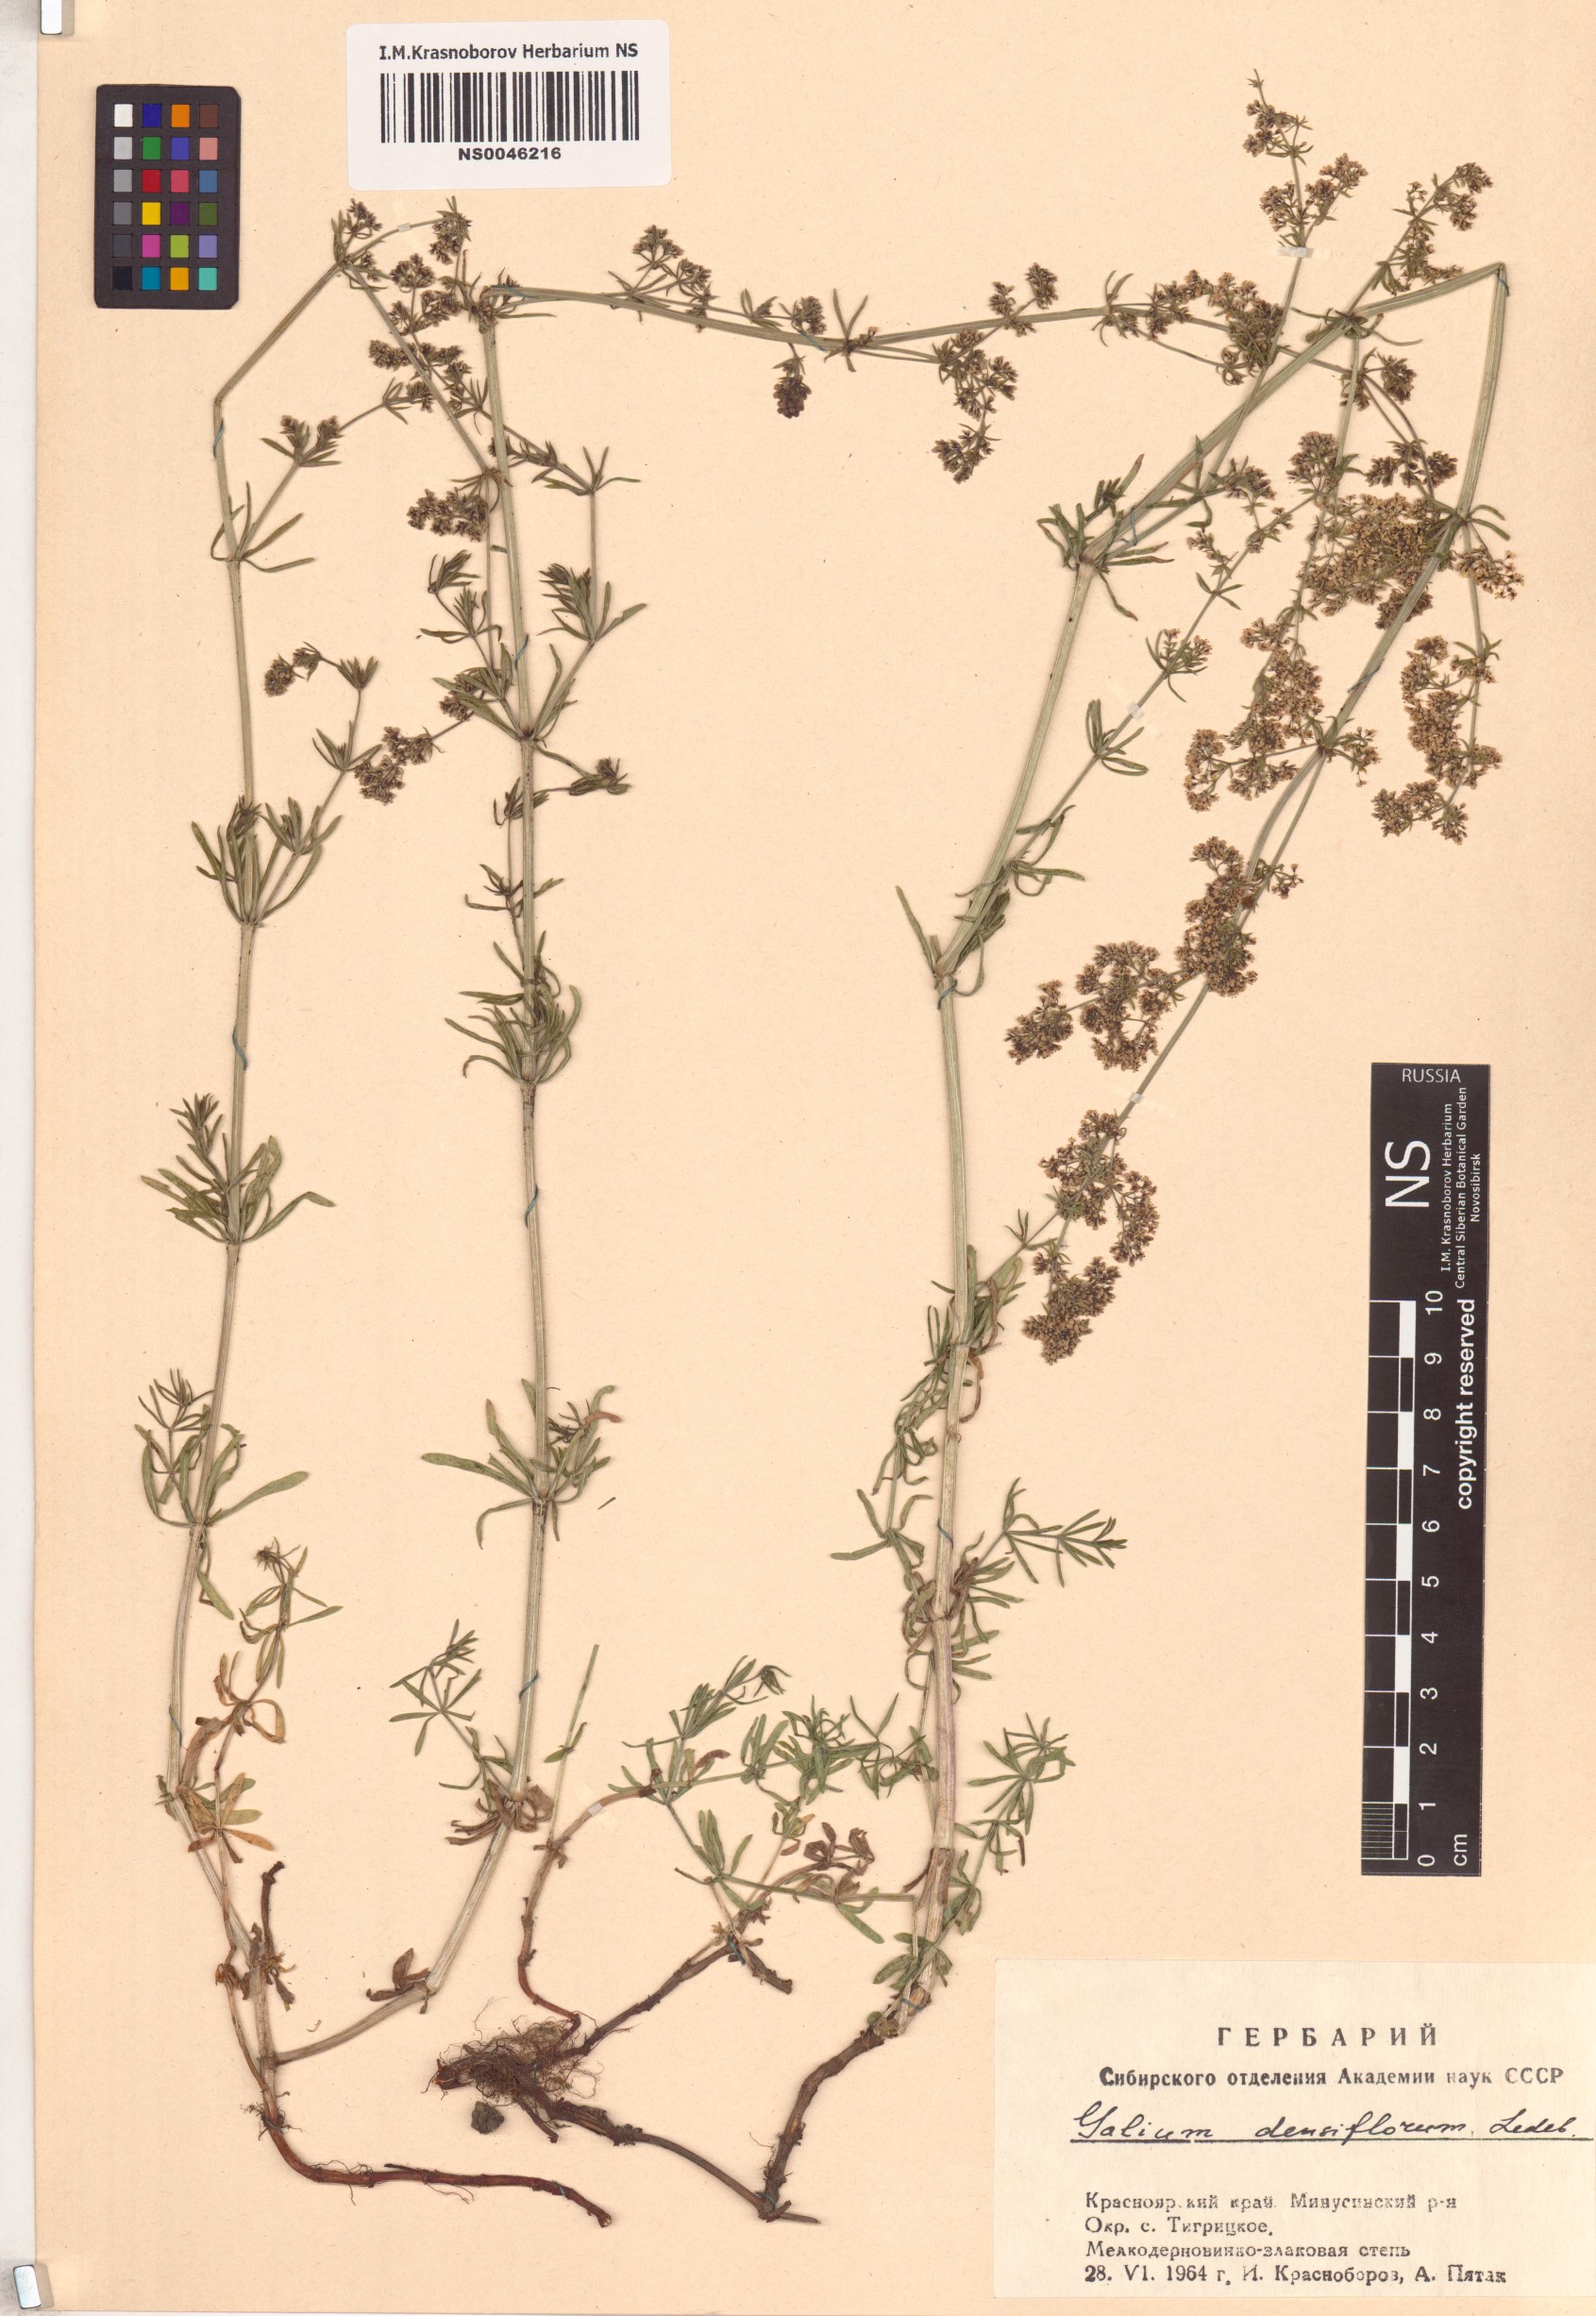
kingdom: Plantae
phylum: Tracheophyta
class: Magnoliopsida
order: Gentianales
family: Rubiaceae
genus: Galium
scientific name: Galium densiflorum
